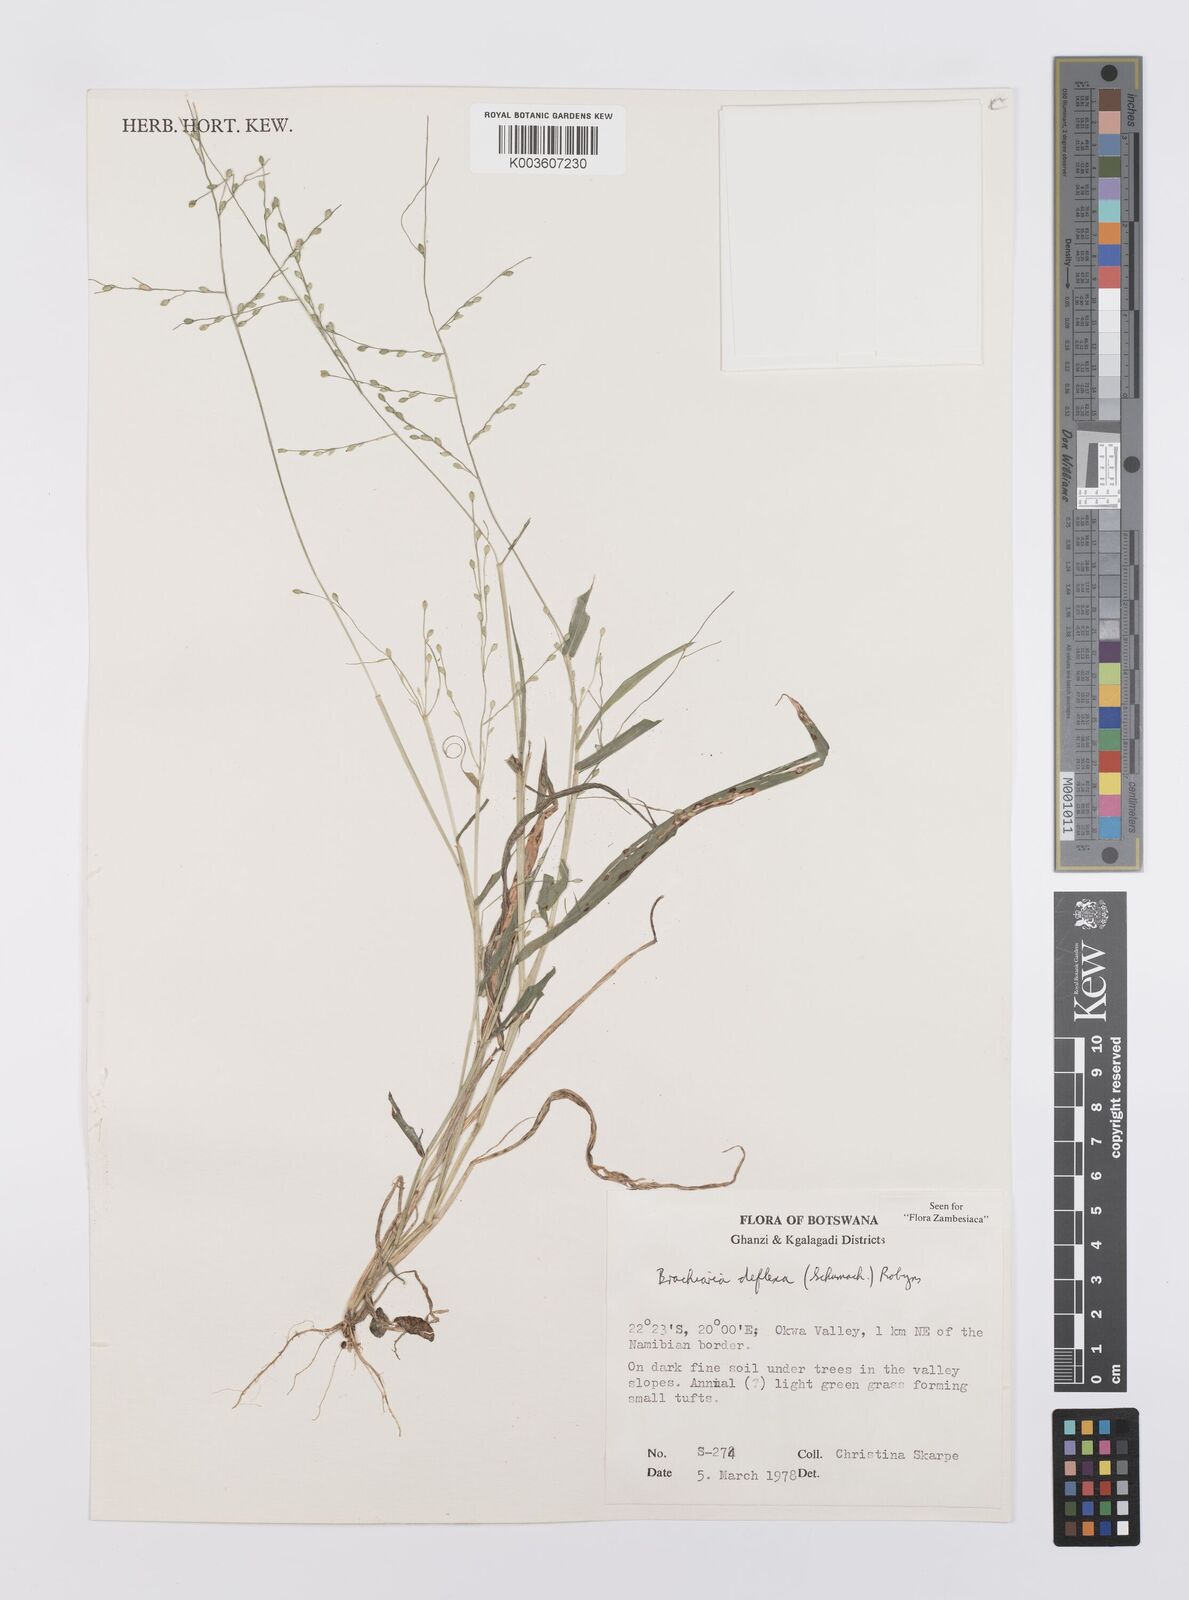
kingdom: Plantae
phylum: Tracheophyta
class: Liliopsida
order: Poales
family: Poaceae
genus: Urochloa
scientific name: Urochloa deflexa
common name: Guinea millet
